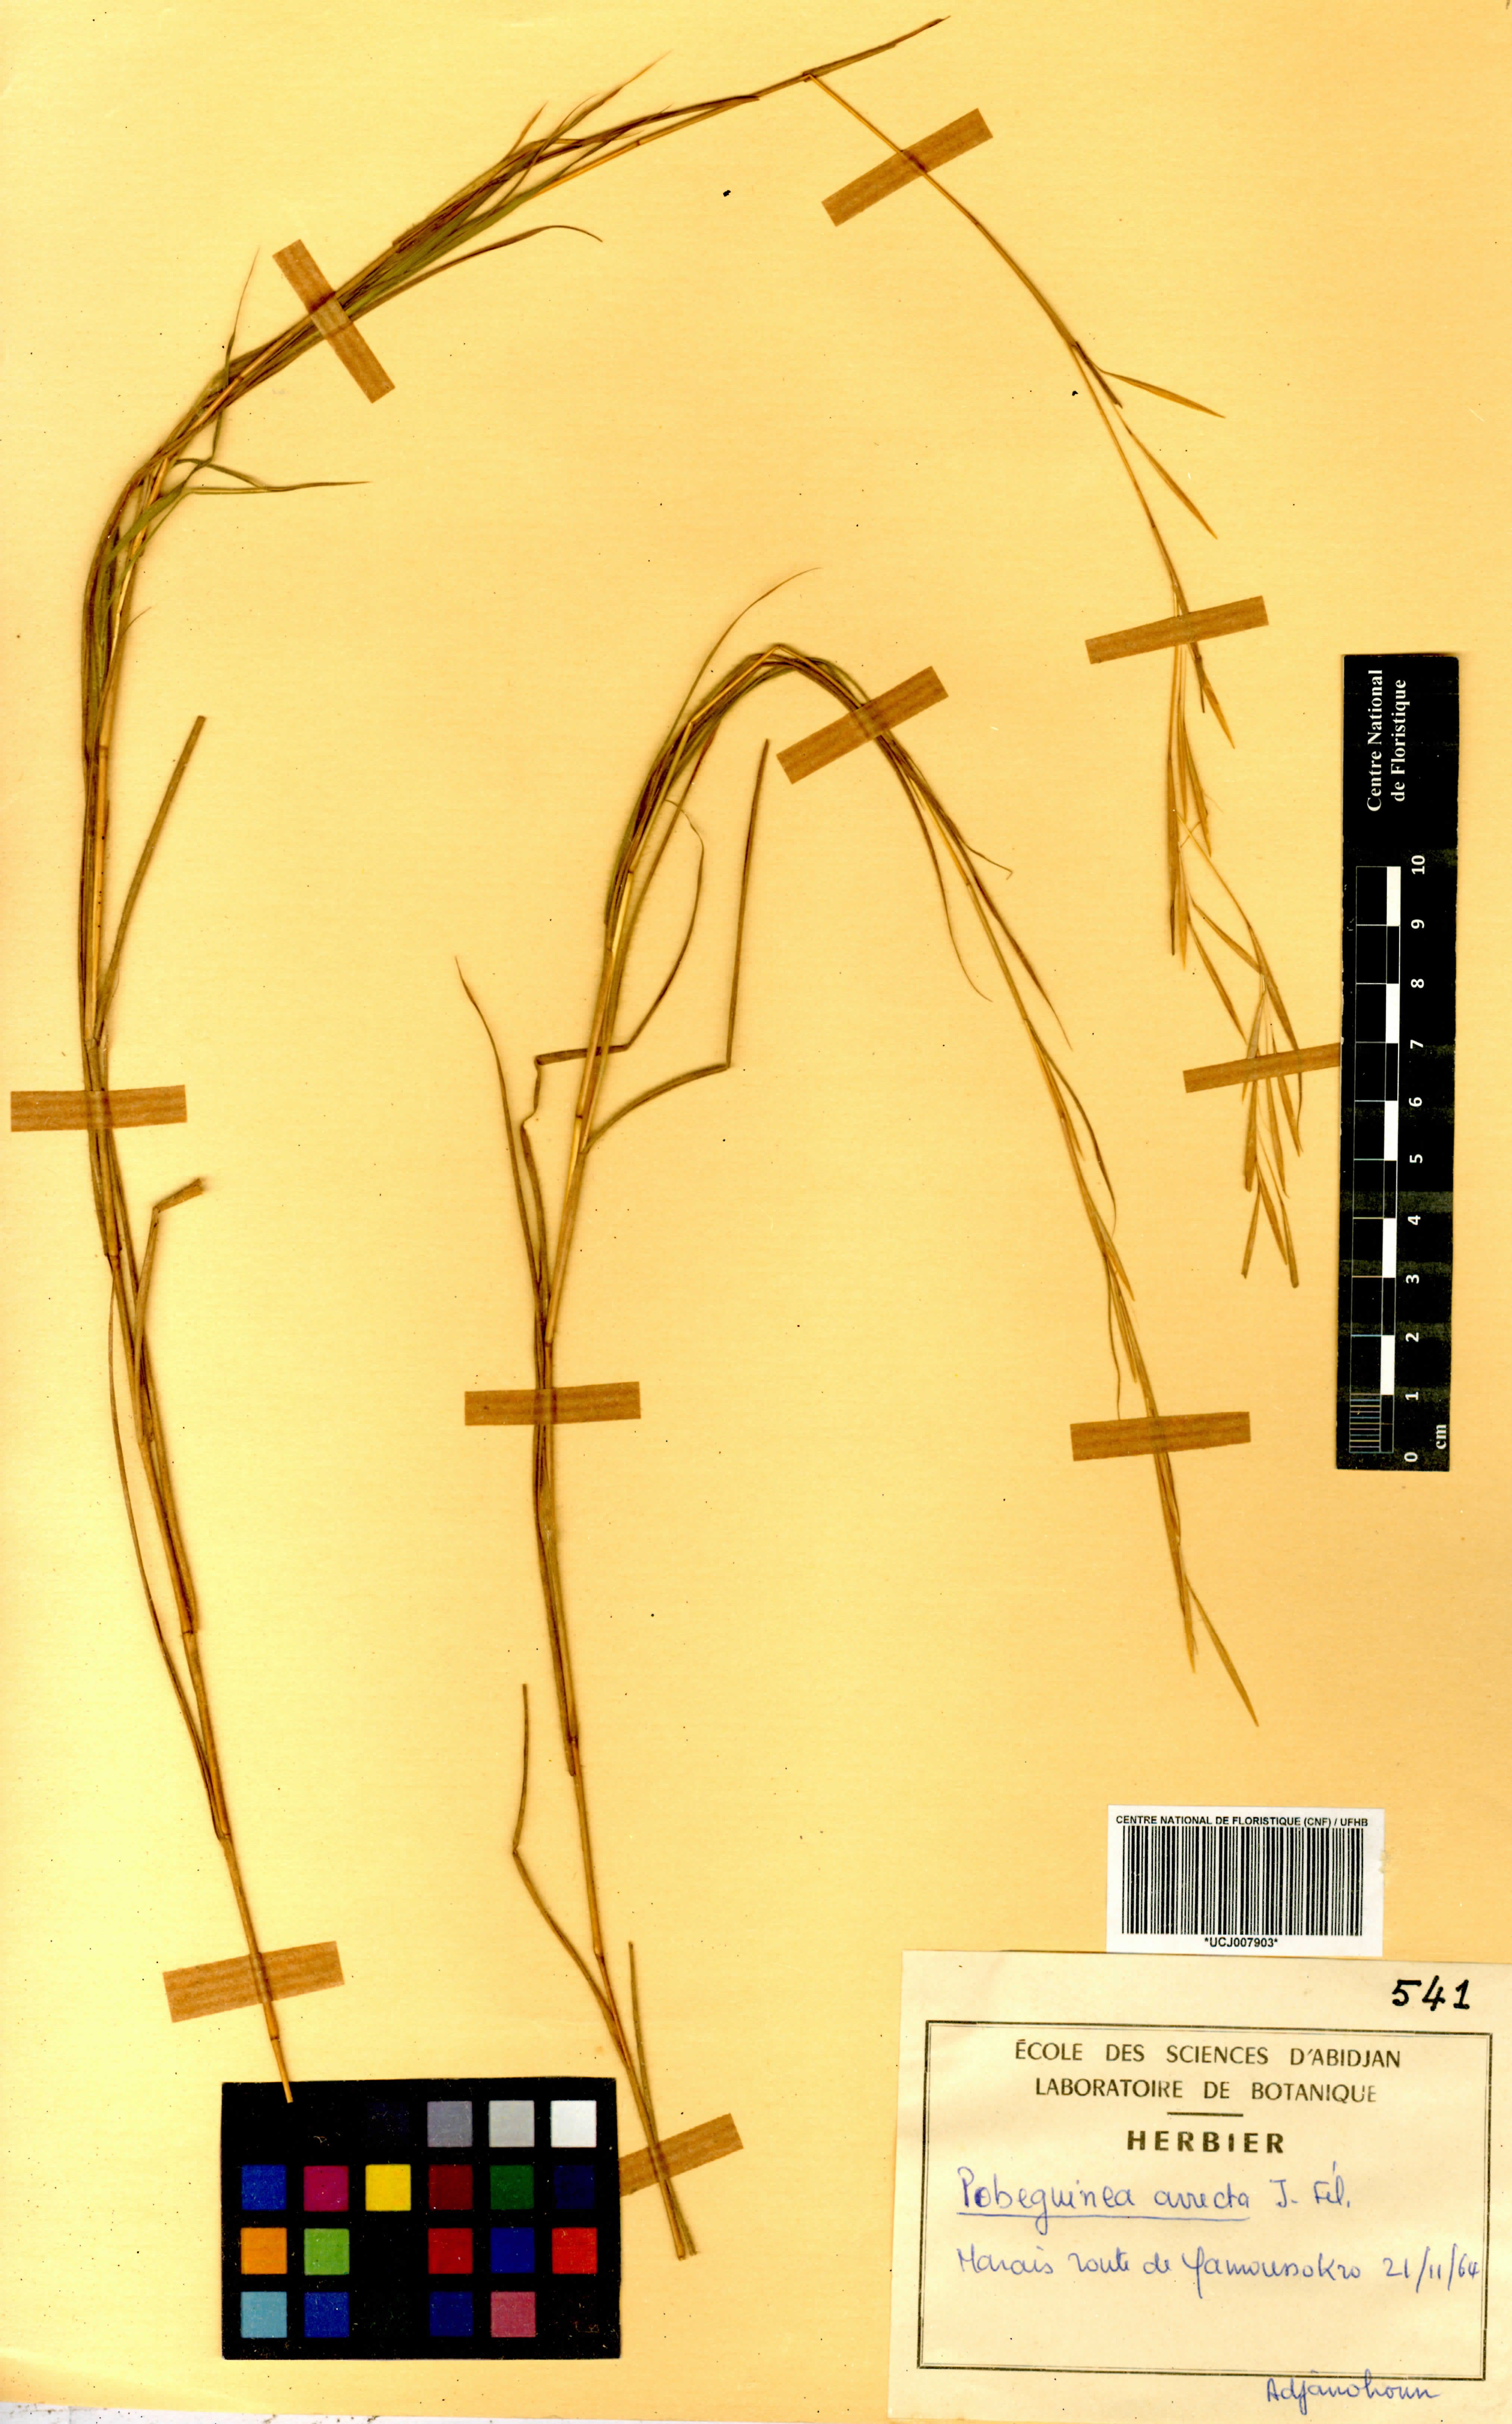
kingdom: Plantae
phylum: Tracheophyta
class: Liliopsida
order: Poales
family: Poaceae
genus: Anadelphia
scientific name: Anadelphia afzeliana
